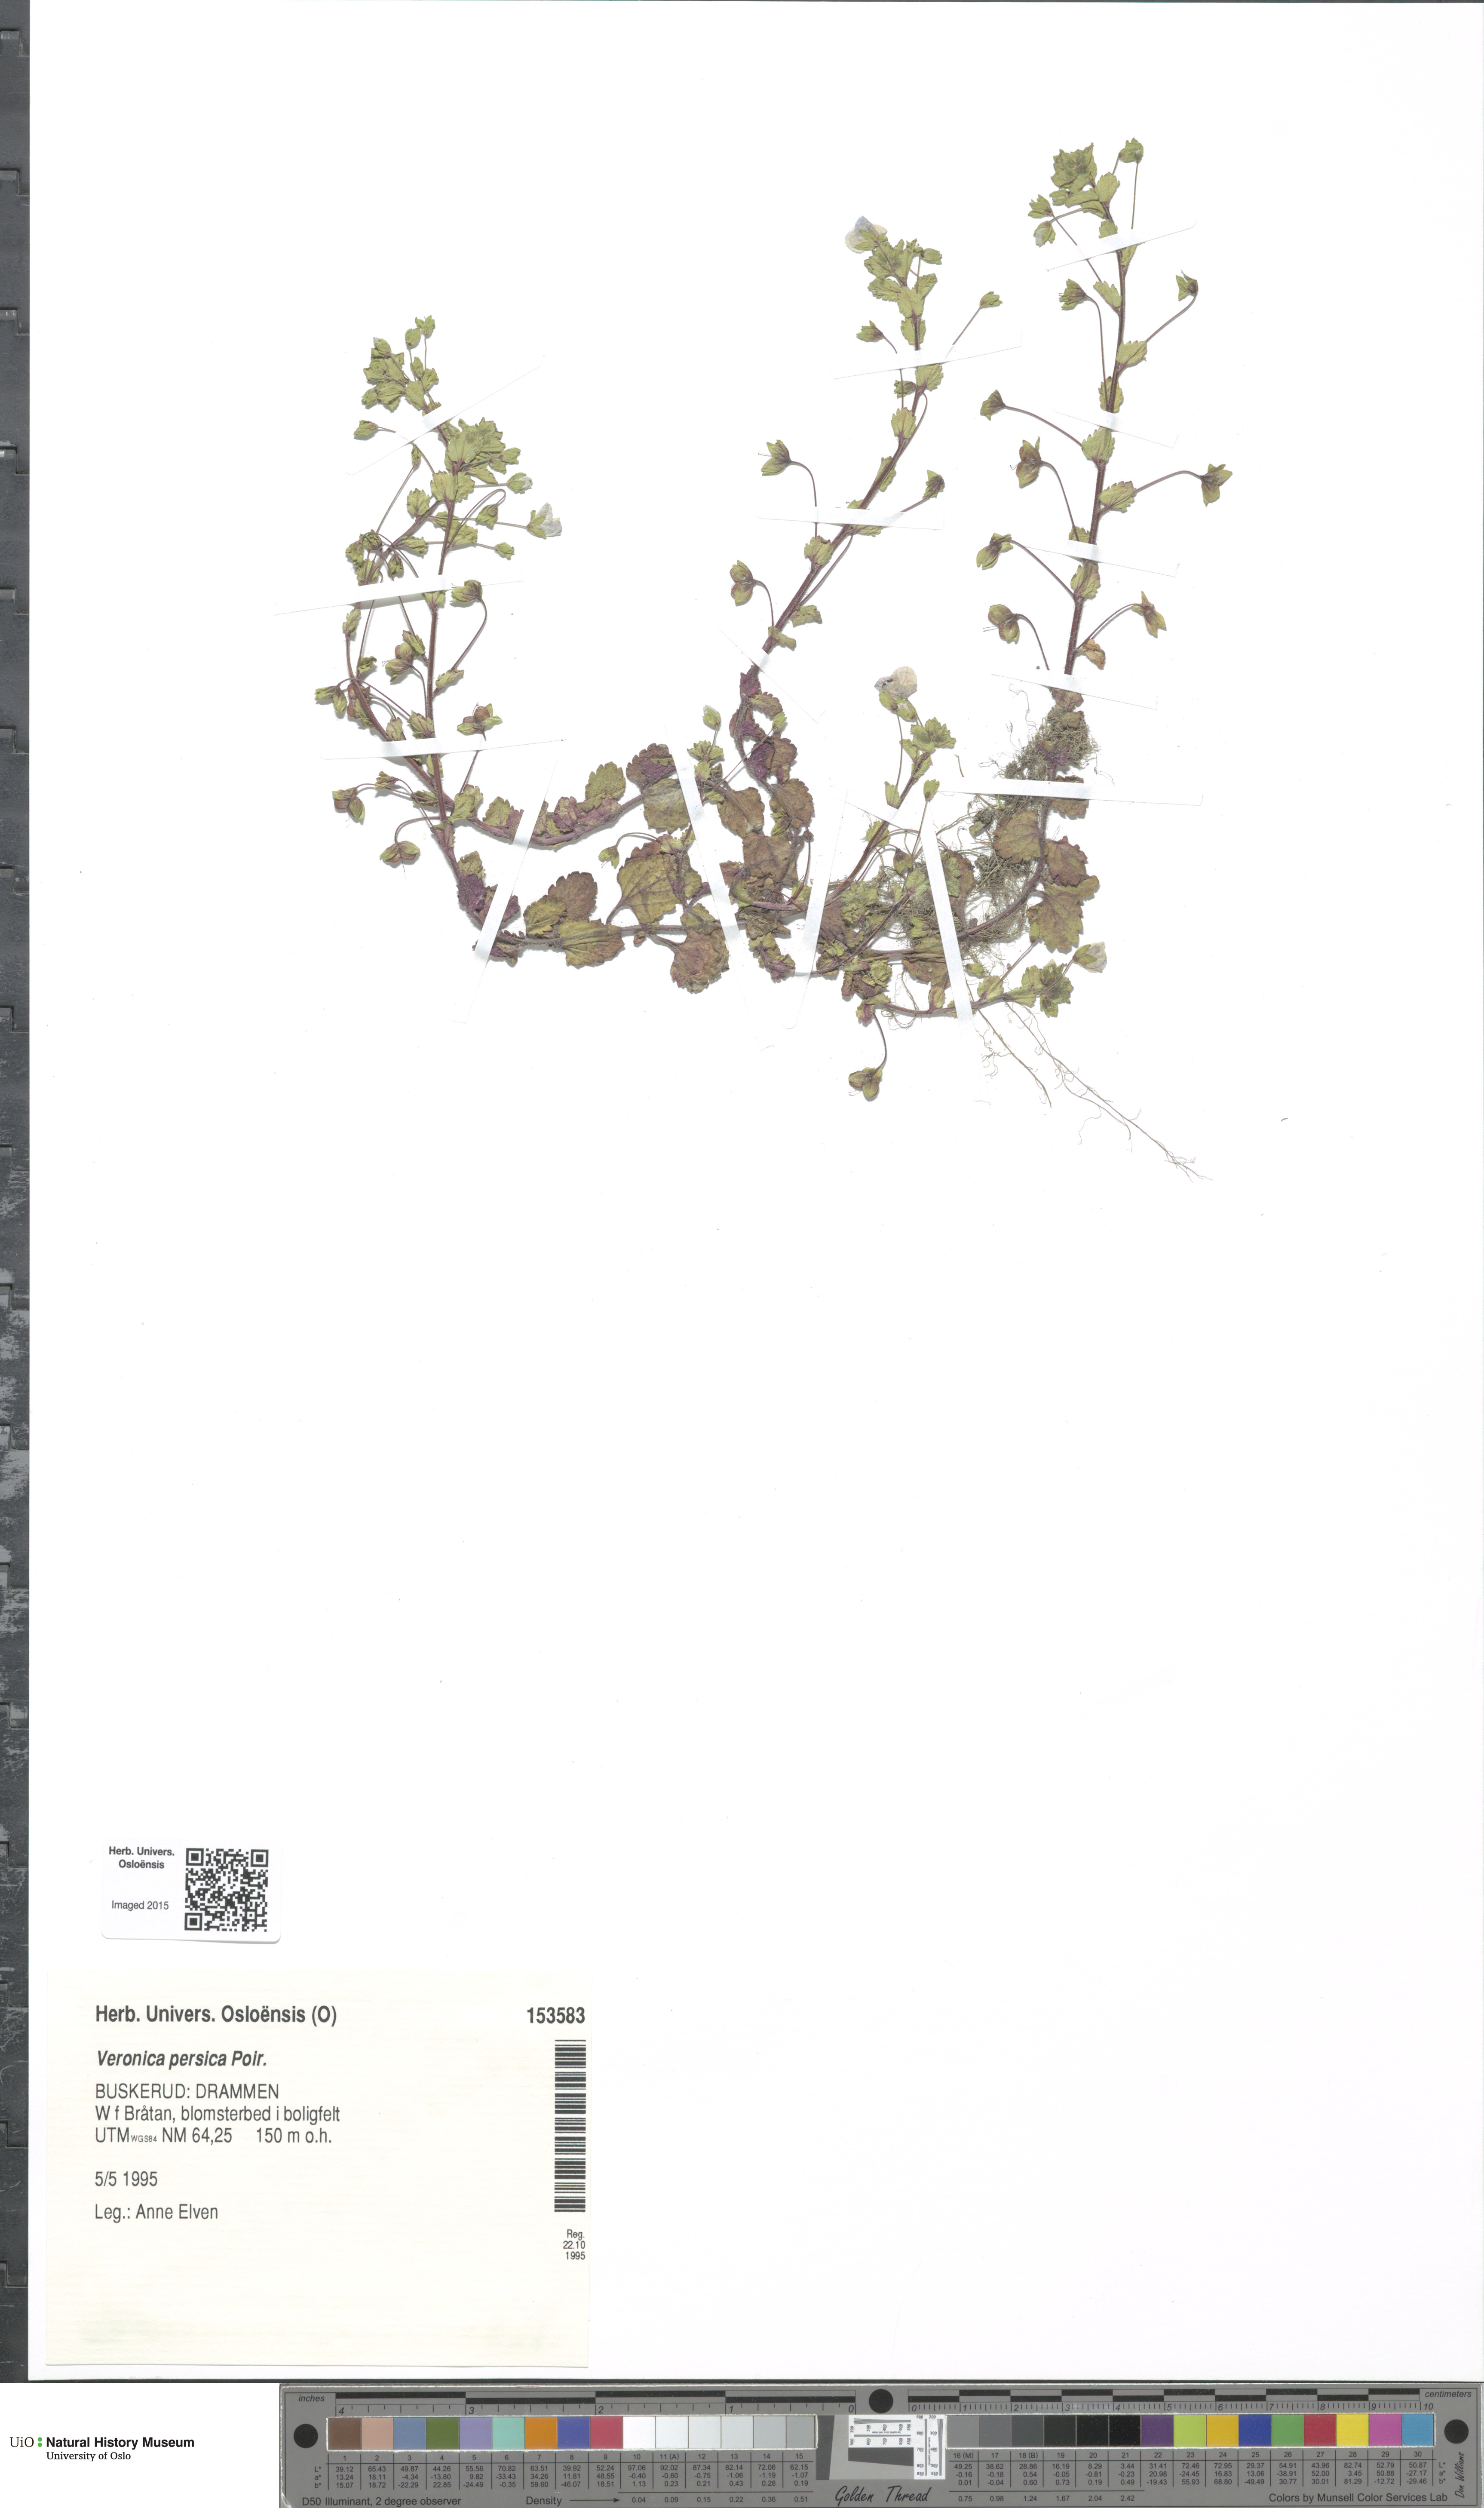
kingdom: Plantae
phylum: Tracheophyta
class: Magnoliopsida
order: Lamiales
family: Plantaginaceae
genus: Veronica
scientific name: Veronica persica
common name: Common field-speedwell
